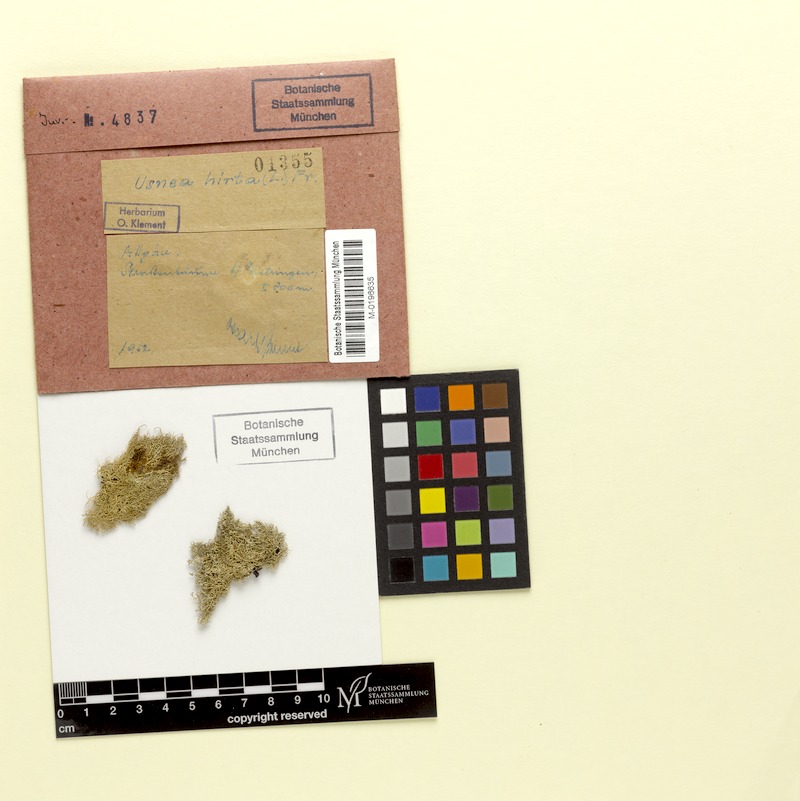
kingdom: Fungi
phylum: Ascomycota
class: Lecanoromycetes
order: Lecanorales
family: Parmeliaceae
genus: Usnea
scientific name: Usnea hirta
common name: Bristly beard lichen
